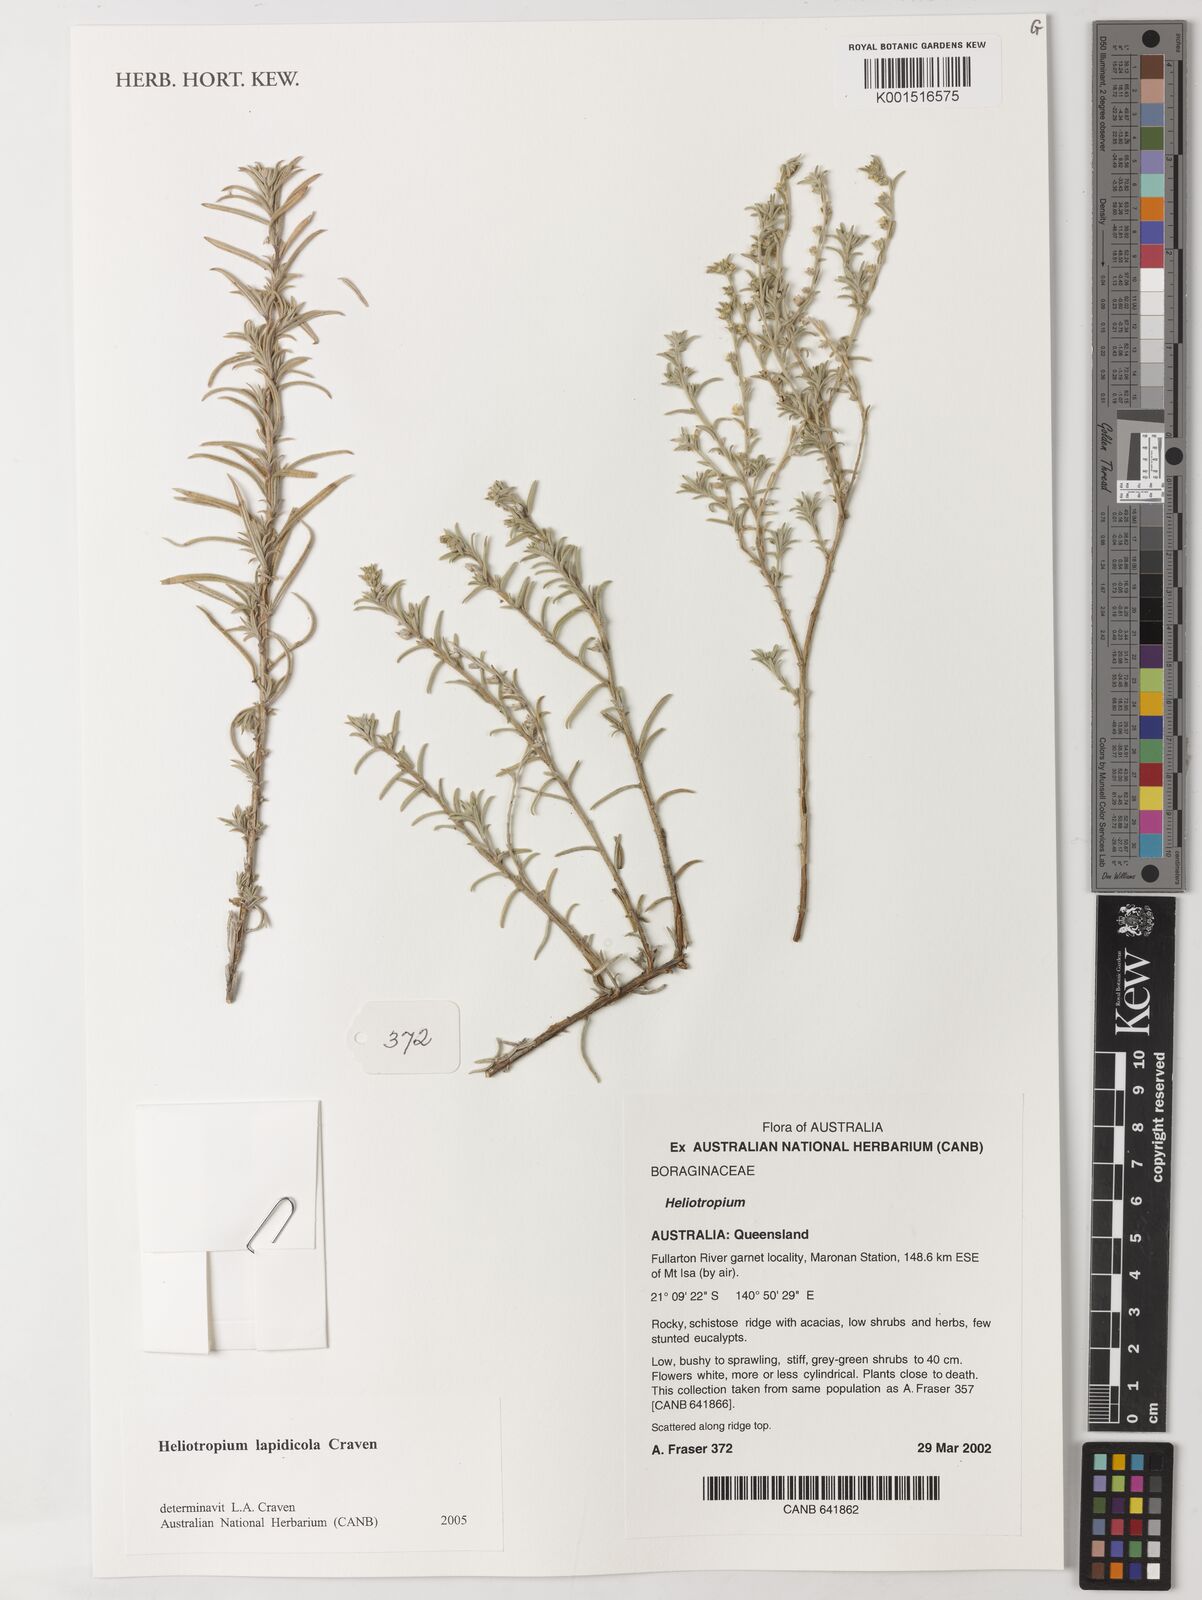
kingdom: Plantae
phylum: Tracheophyta
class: Magnoliopsida
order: Boraginales
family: Heliotropiaceae
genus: Euploca
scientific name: Euploca lapidicola
